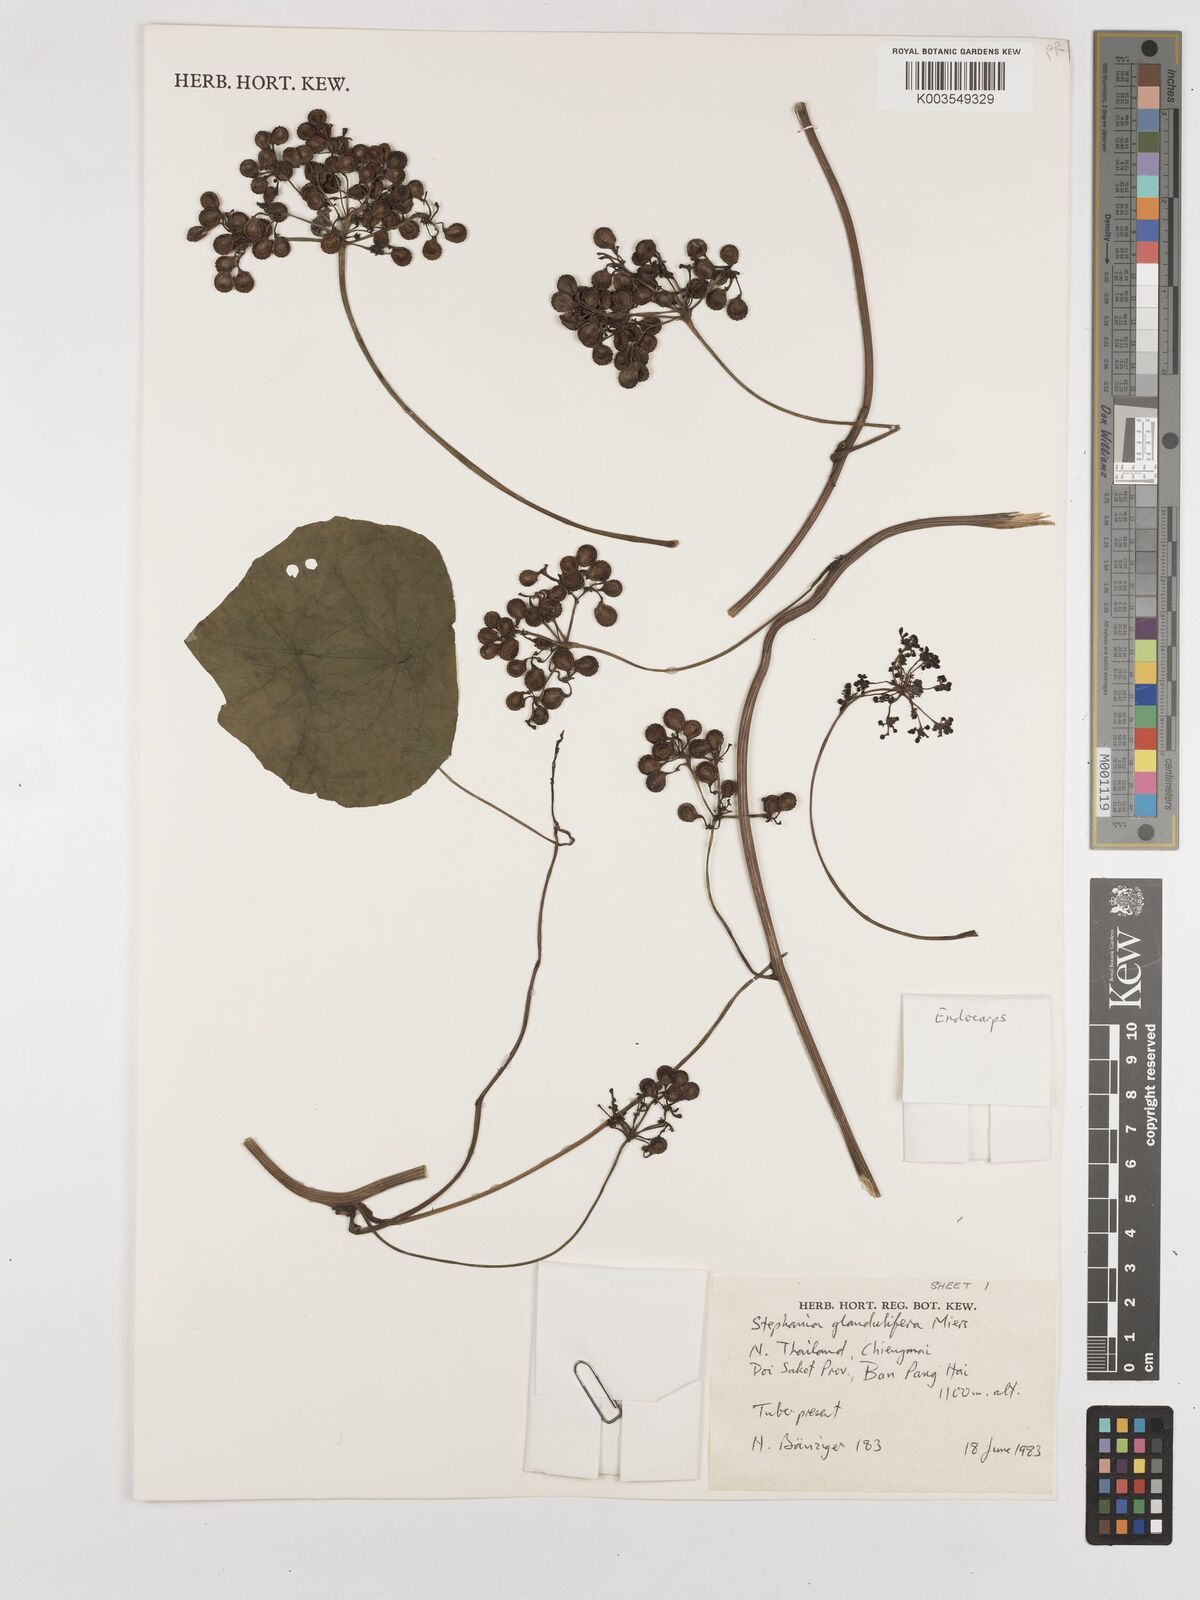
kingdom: Plantae
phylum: Tracheophyta
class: Magnoliopsida
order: Ranunculales
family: Menispermaceae
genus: Stephania
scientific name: Stephania glandulifera
